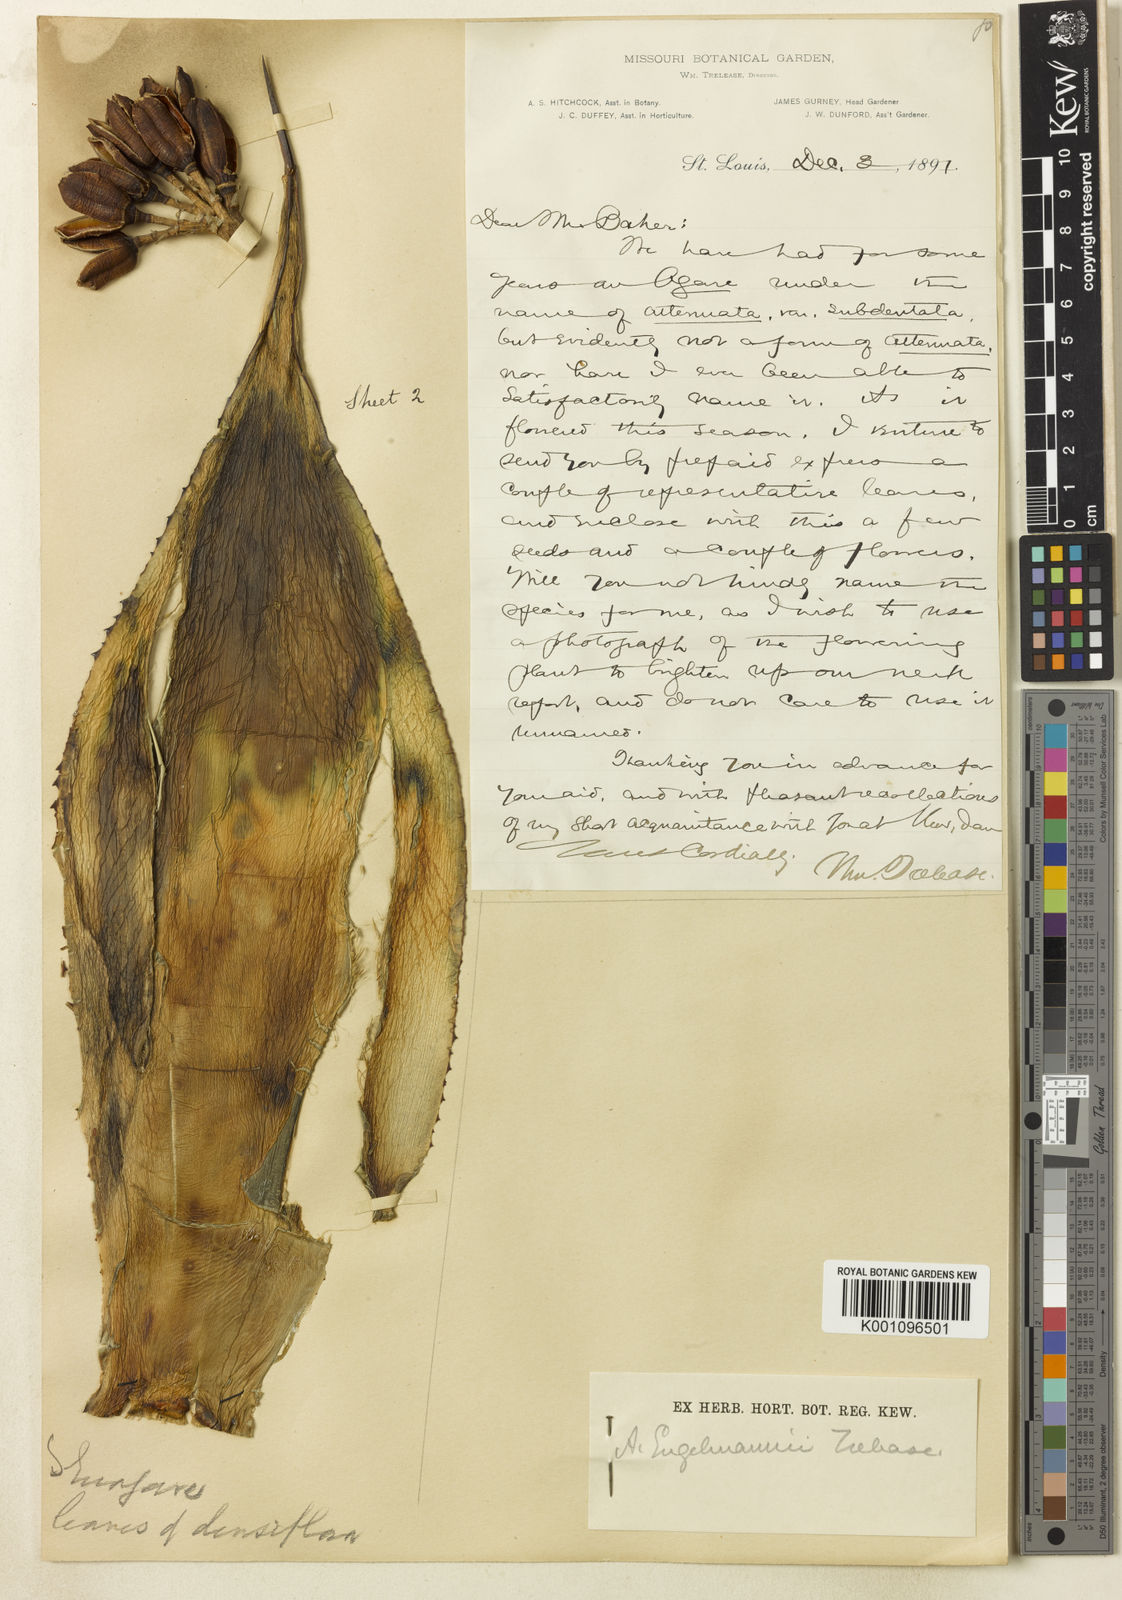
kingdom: Plantae
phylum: Tracheophyta
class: Liliopsida
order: Asparagales
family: Asparagaceae
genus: Agave
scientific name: Agave polyacantha
